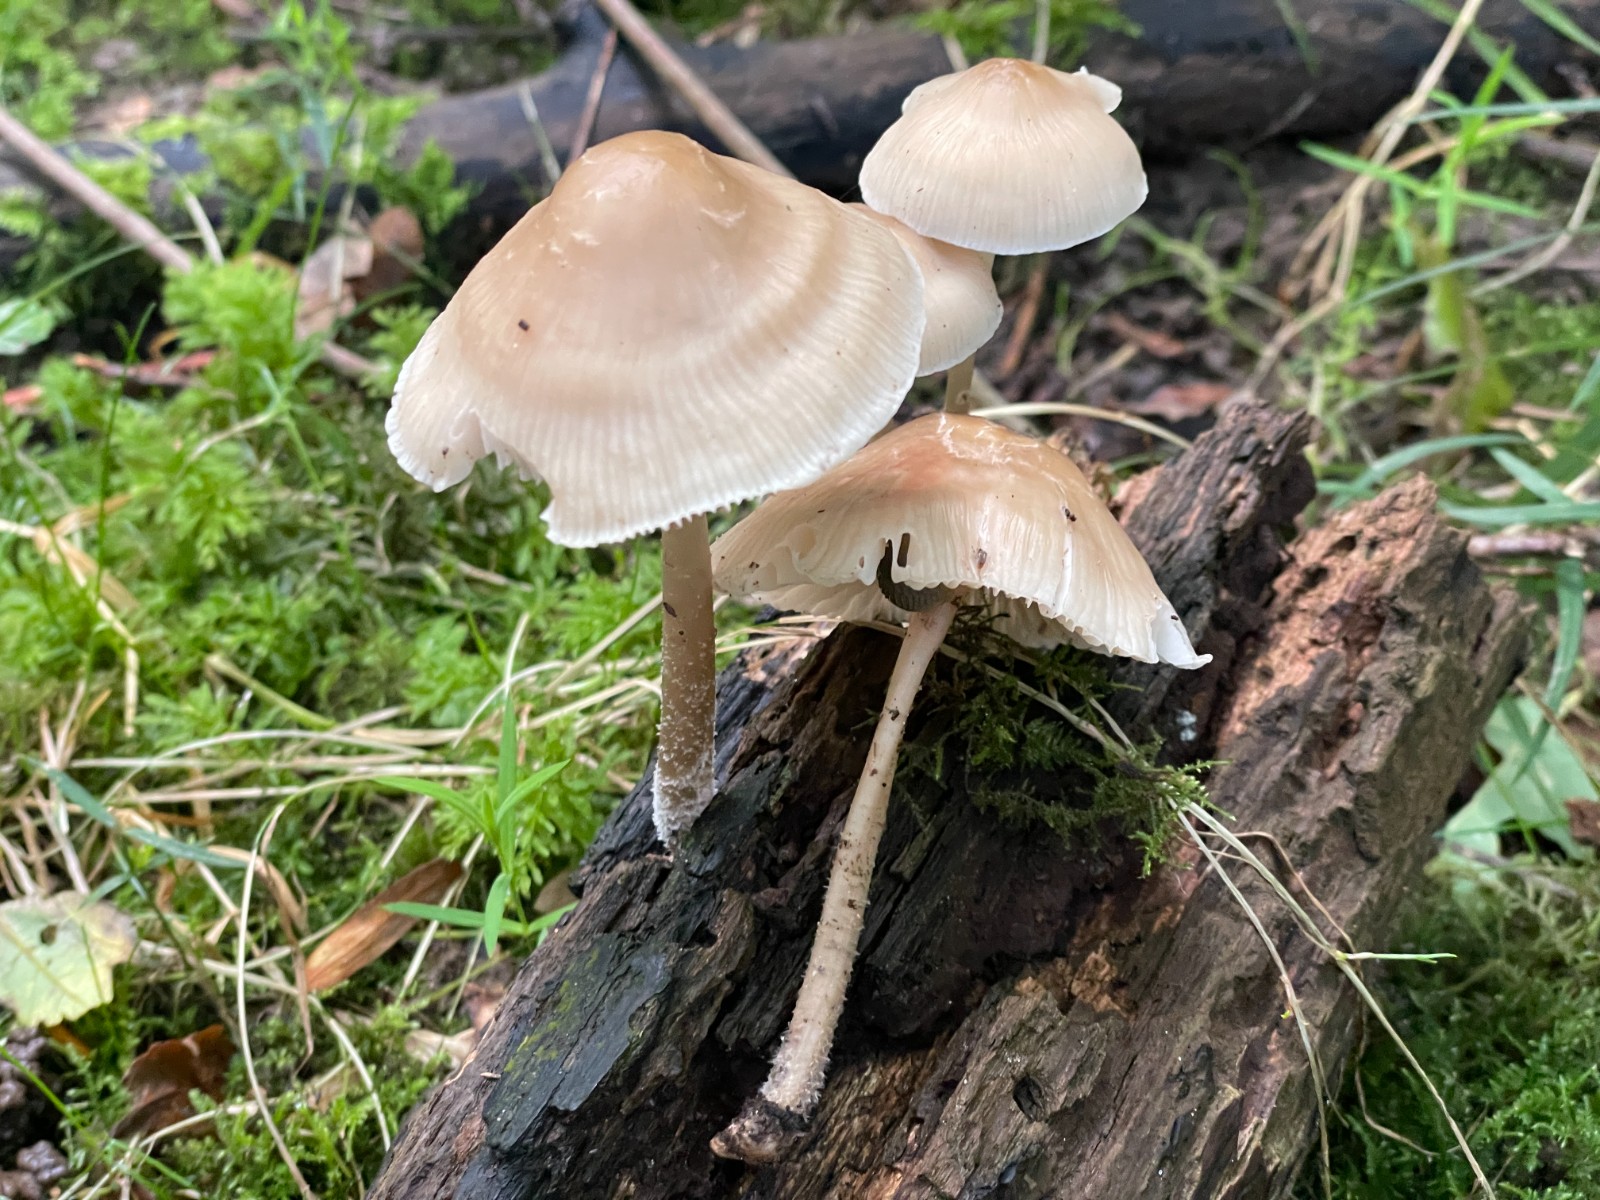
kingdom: Fungi
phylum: Basidiomycota
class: Agaricomycetes
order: Agaricales
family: Mycenaceae
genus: Mycena
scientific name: Mycena galericulata
